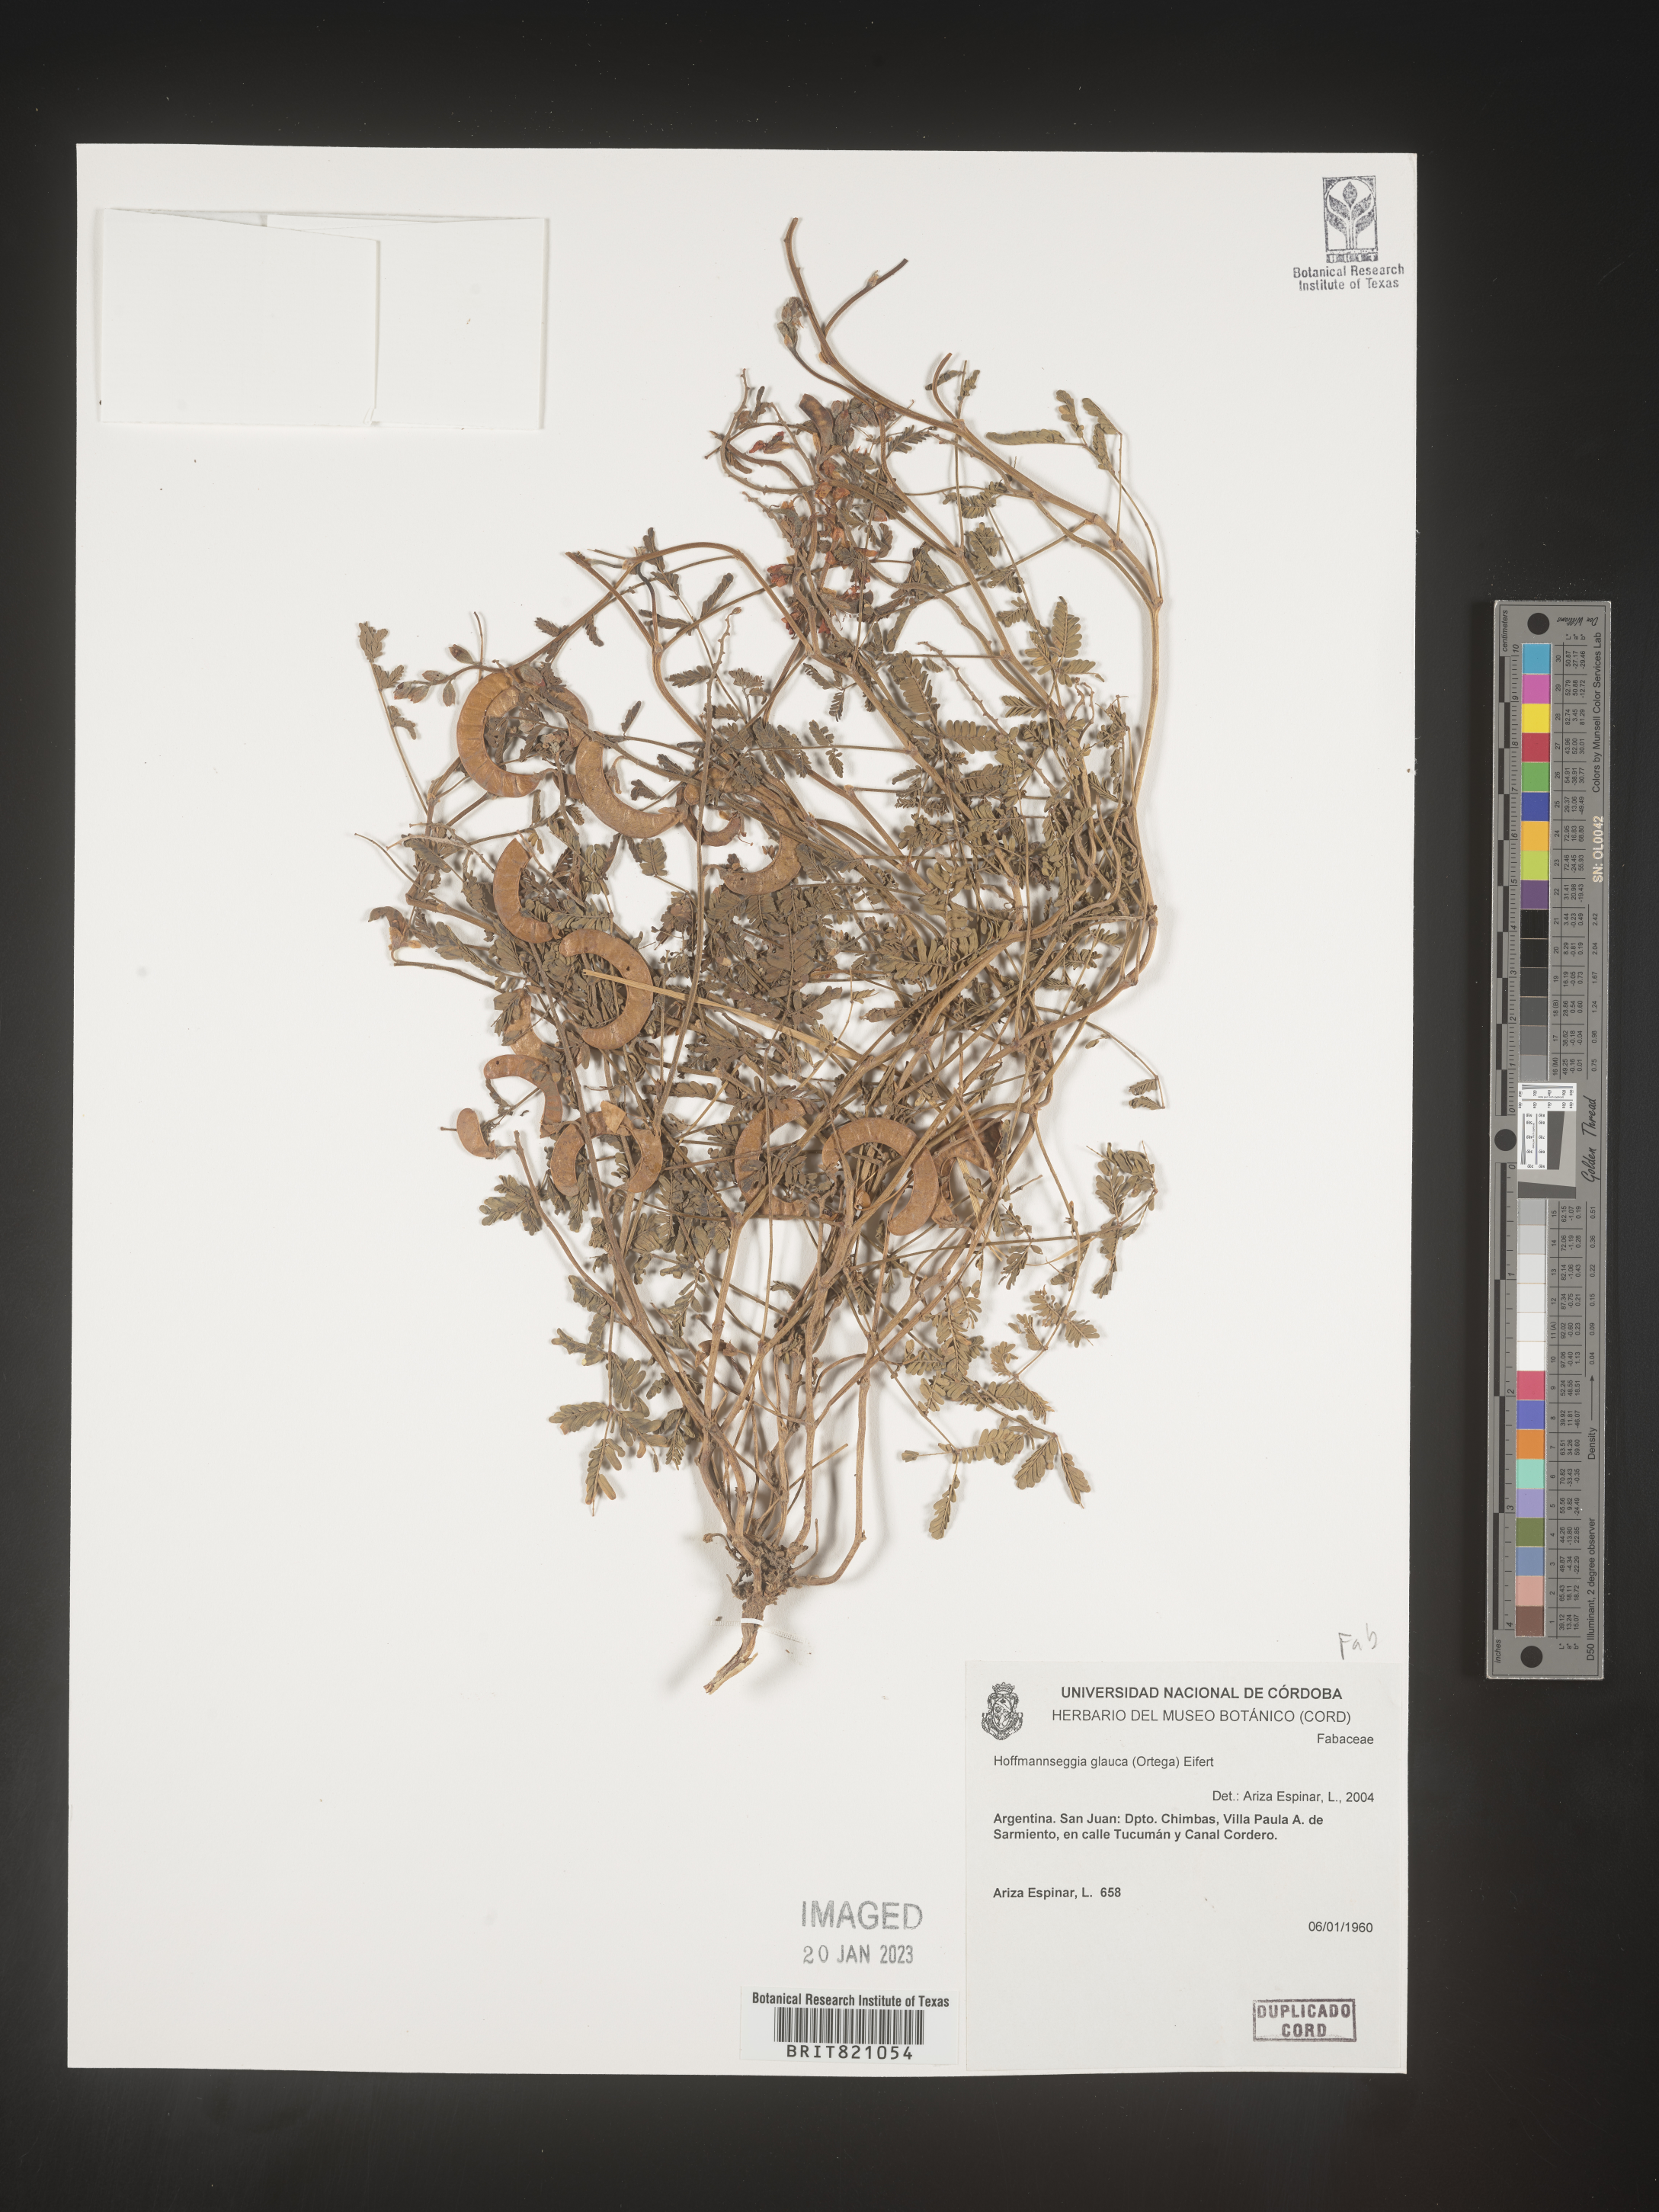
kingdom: Plantae
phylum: Tracheophyta
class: Magnoliopsida
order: Fabales
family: Fabaceae
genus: Hoffmannseggia
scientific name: Hoffmannseggia
